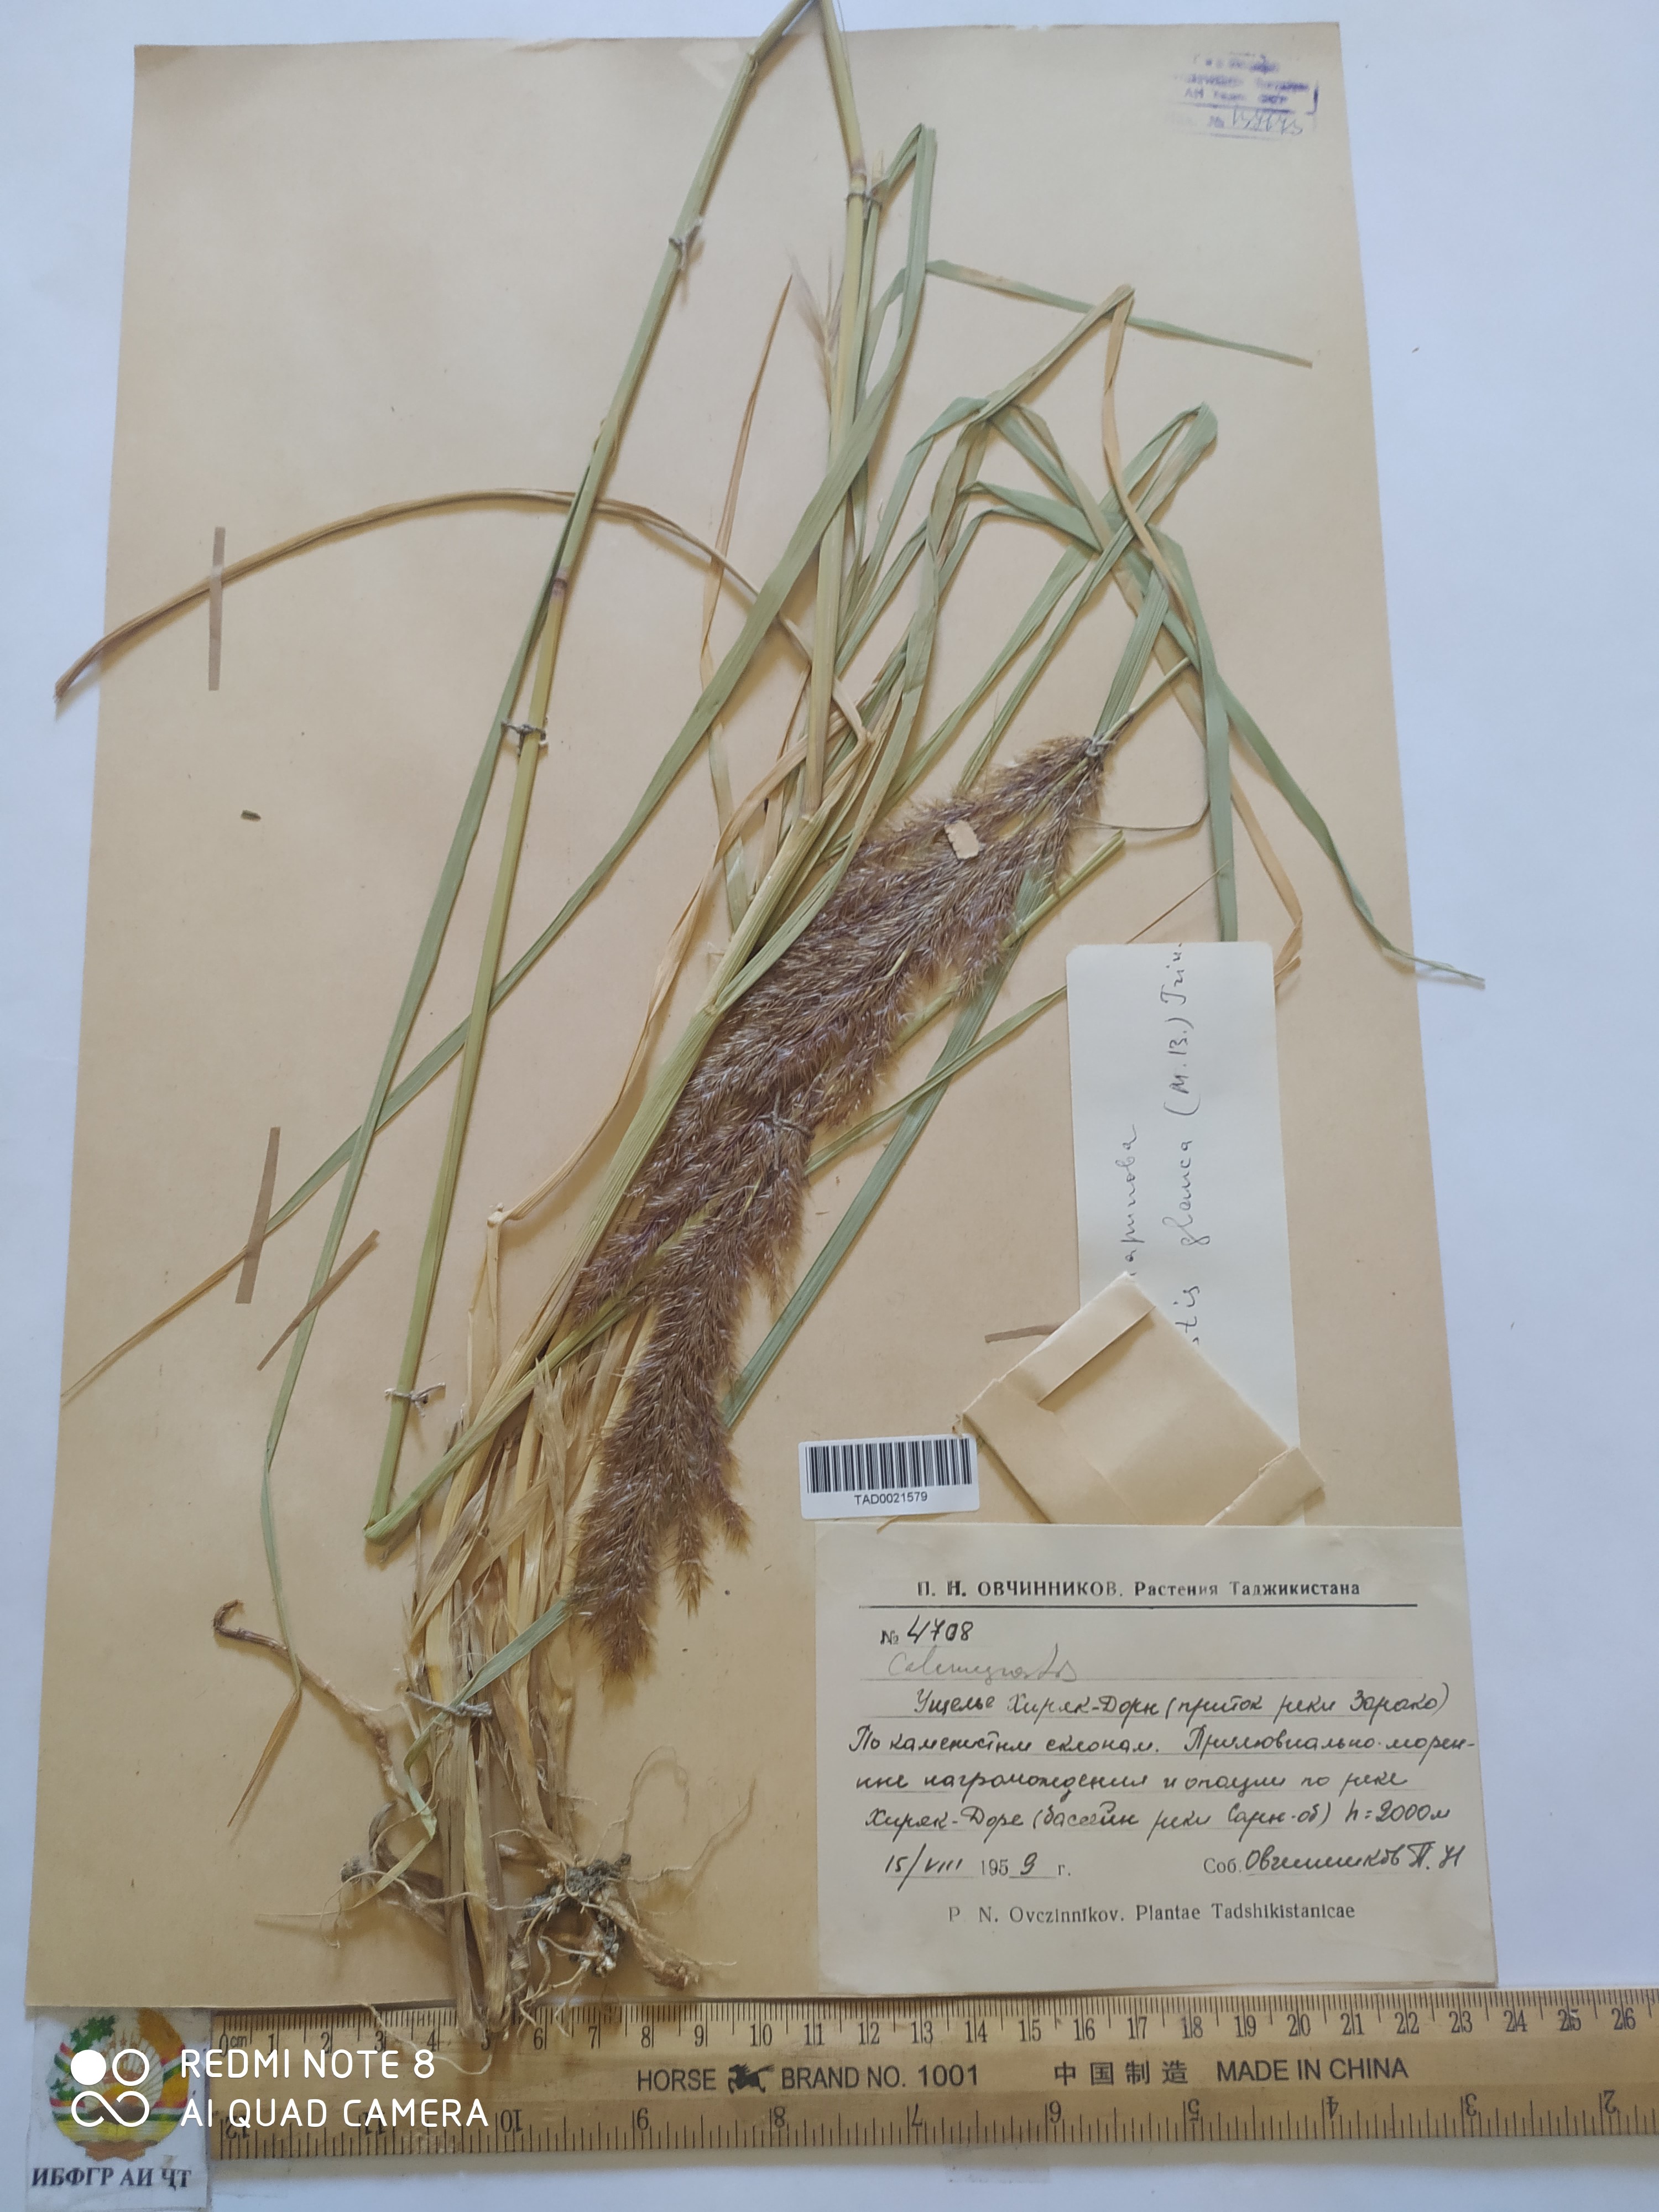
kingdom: Plantae
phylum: Tracheophyta
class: Liliopsida
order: Poales
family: Poaceae
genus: Calamagrostis
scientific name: Calamagrostis pseudophragmites
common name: Coastal small-reed
